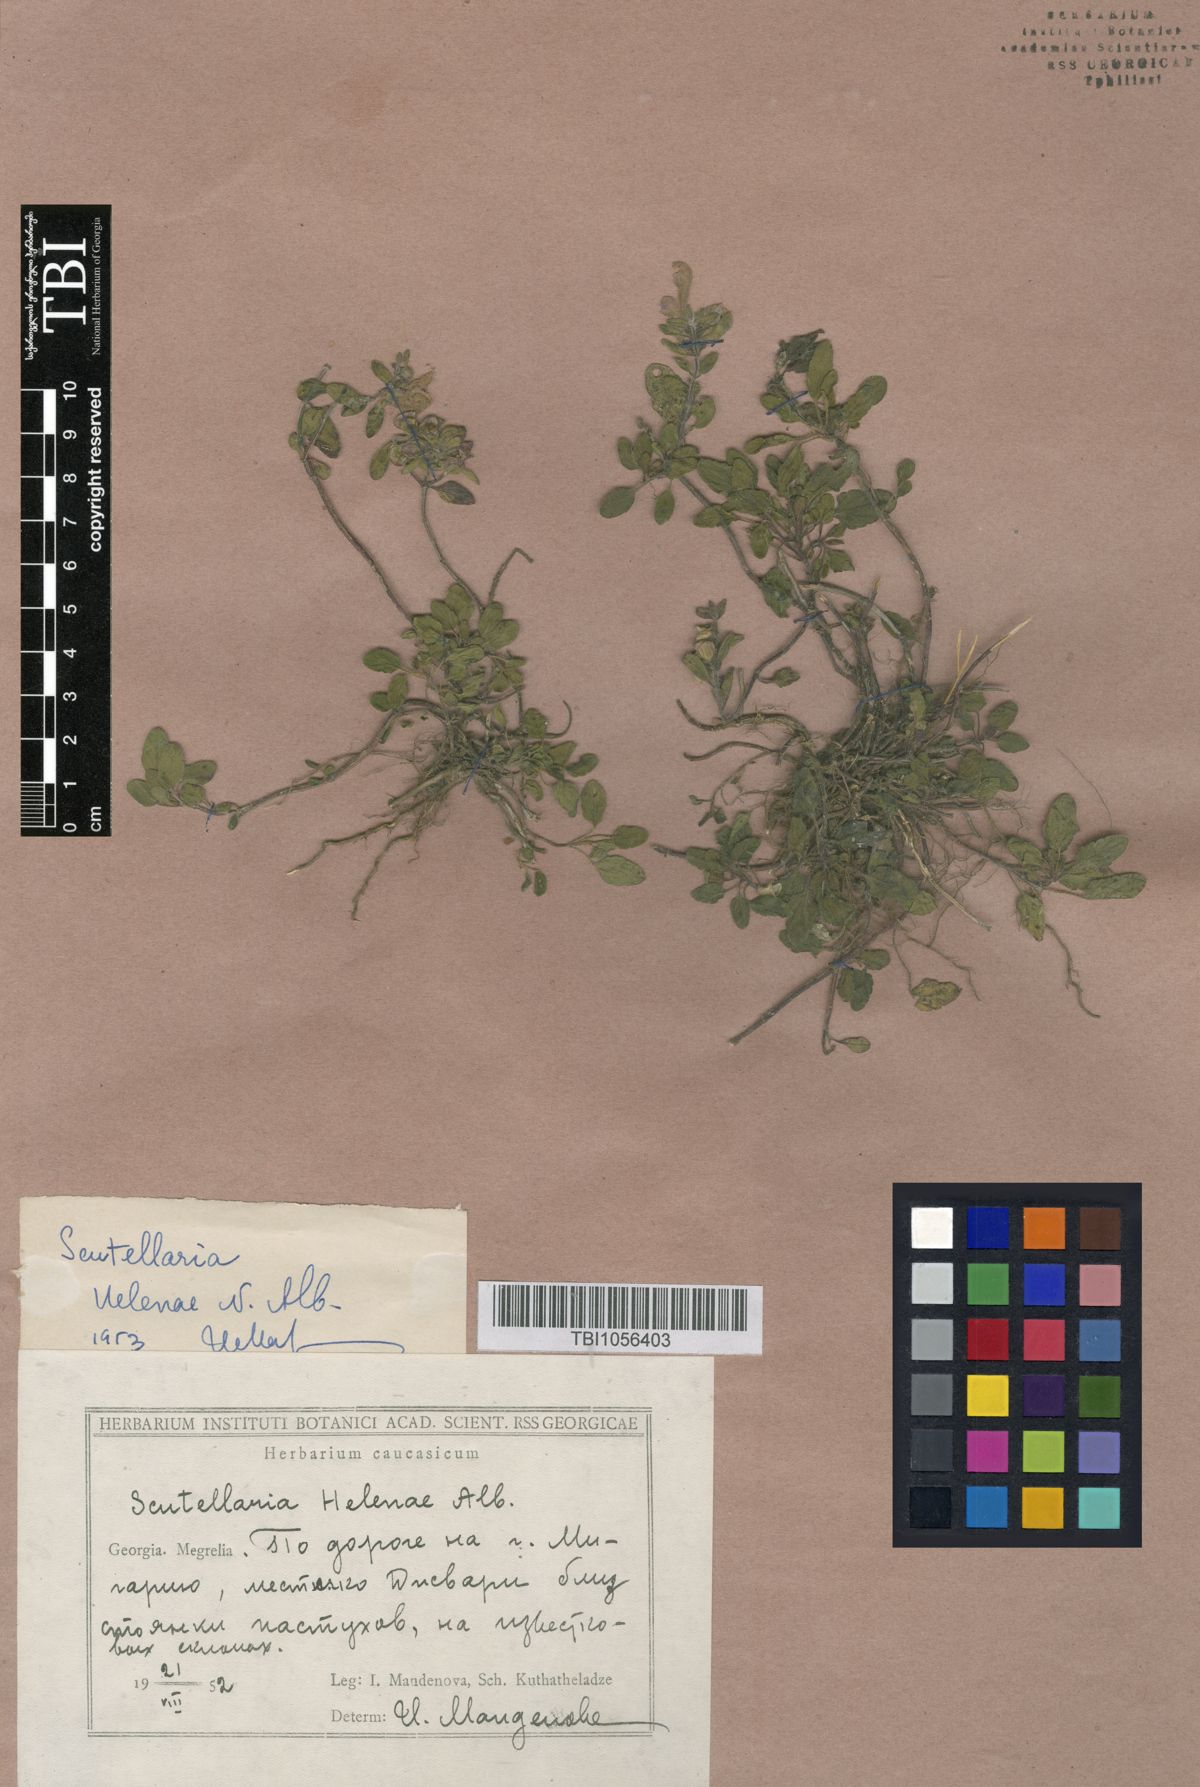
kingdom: Plantae
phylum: Tracheophyta
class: Magnoliopsida
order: Lamiales
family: Lamiaceae
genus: Scutellaria
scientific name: Scutellaria helenae
